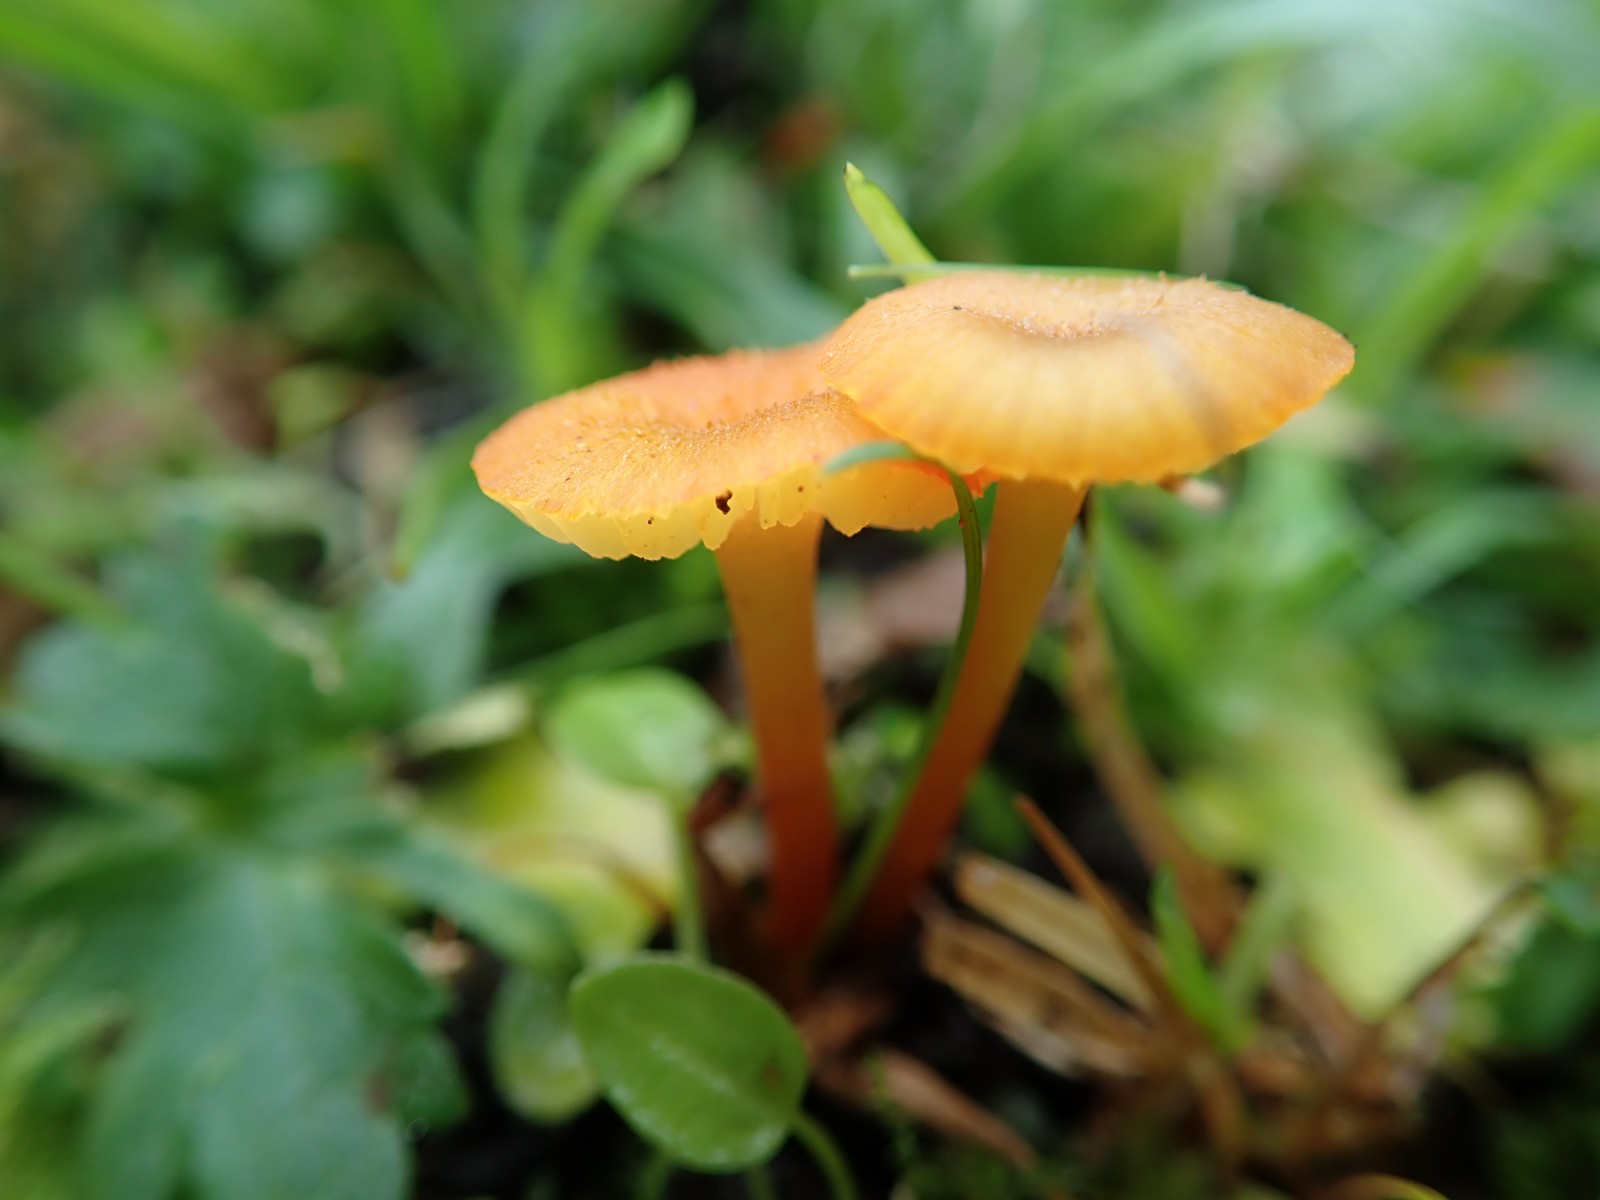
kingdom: Fungi
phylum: Basidiomycota
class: Agaricomycetes
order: Agaricales
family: Hygrophoraceae
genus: Hygrocybe
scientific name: Hygrocybe helobia
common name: hvidløgs-vokshat
